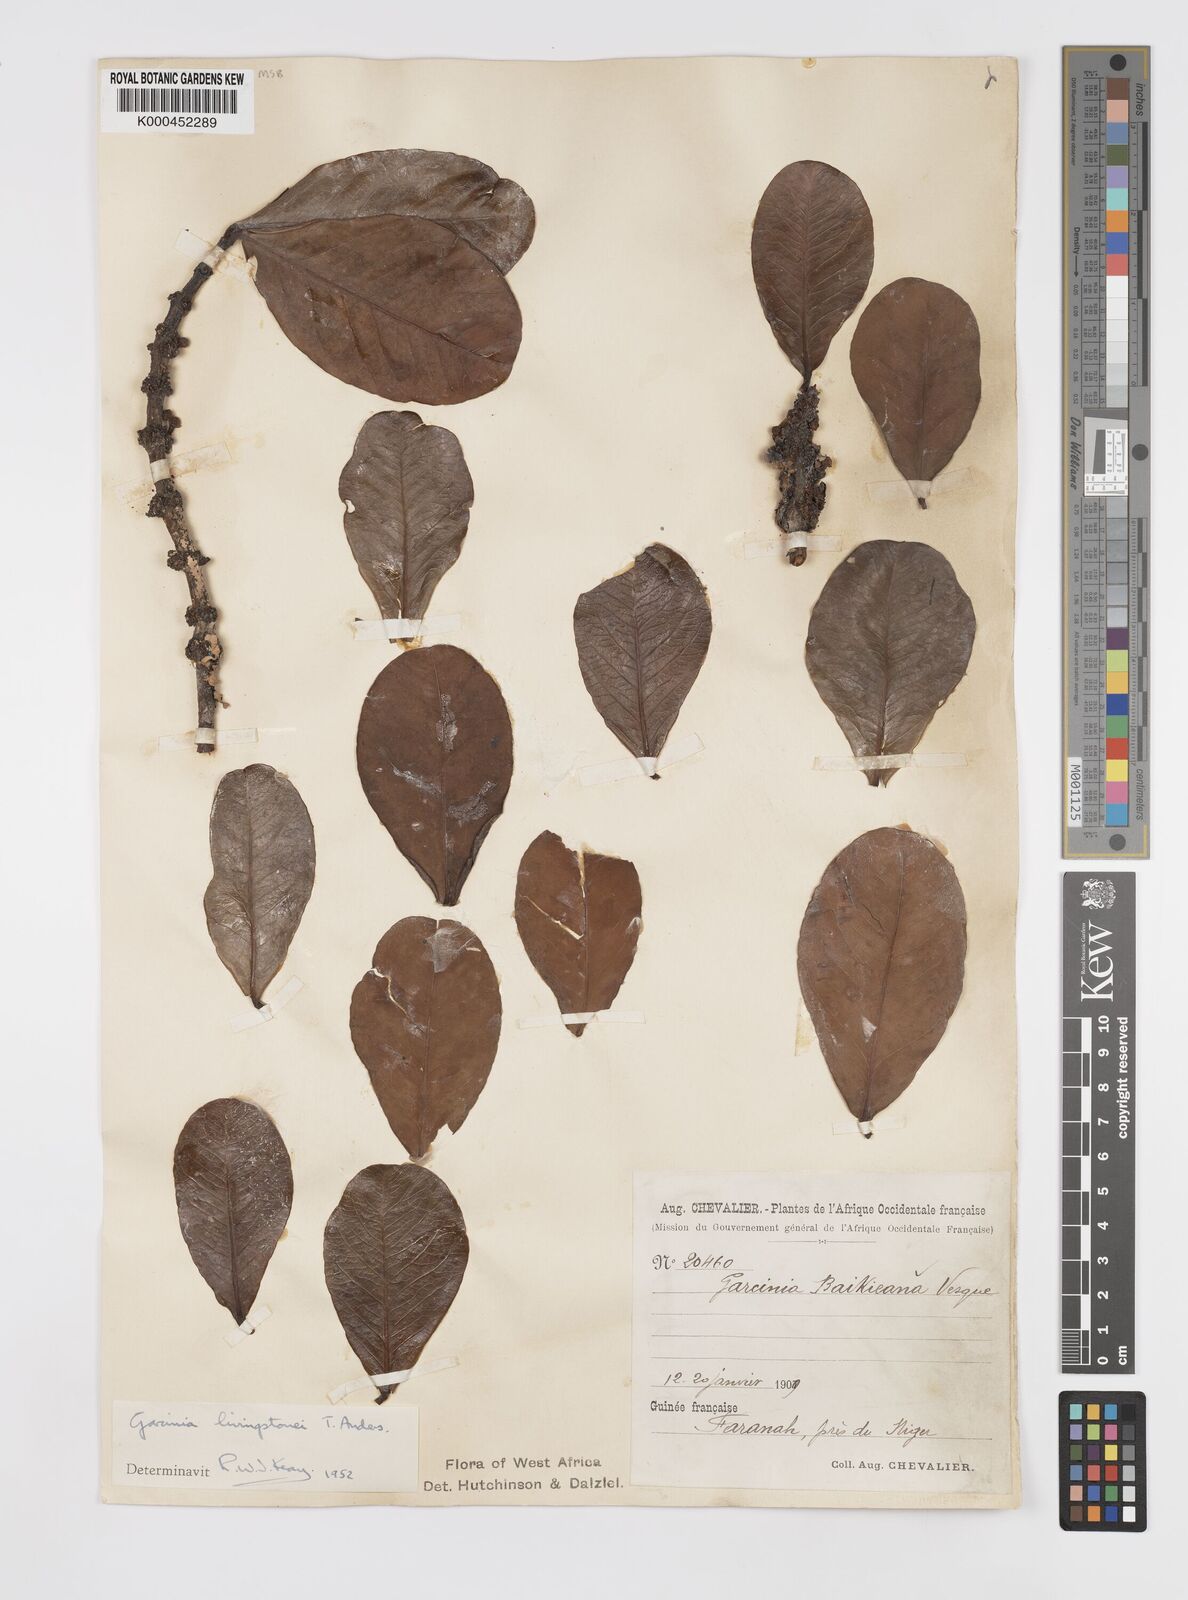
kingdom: Plantae
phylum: Tracheophyta
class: Magnoliopsida
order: Malpighiales
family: Clusiaceae
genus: Garcinia
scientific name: Garcinia livingstonei
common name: African mangosteen
